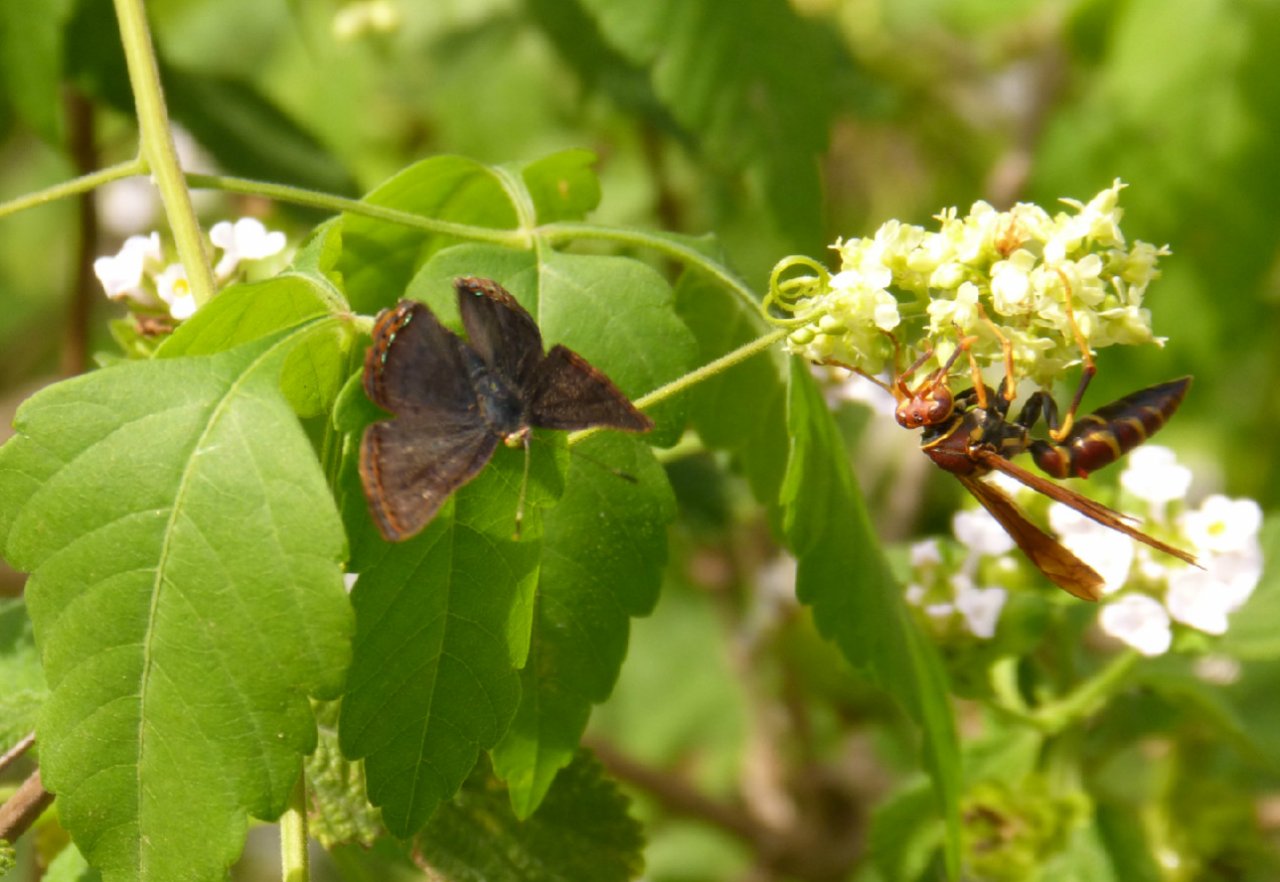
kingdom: Animalia
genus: Caria
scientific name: Caria ino
